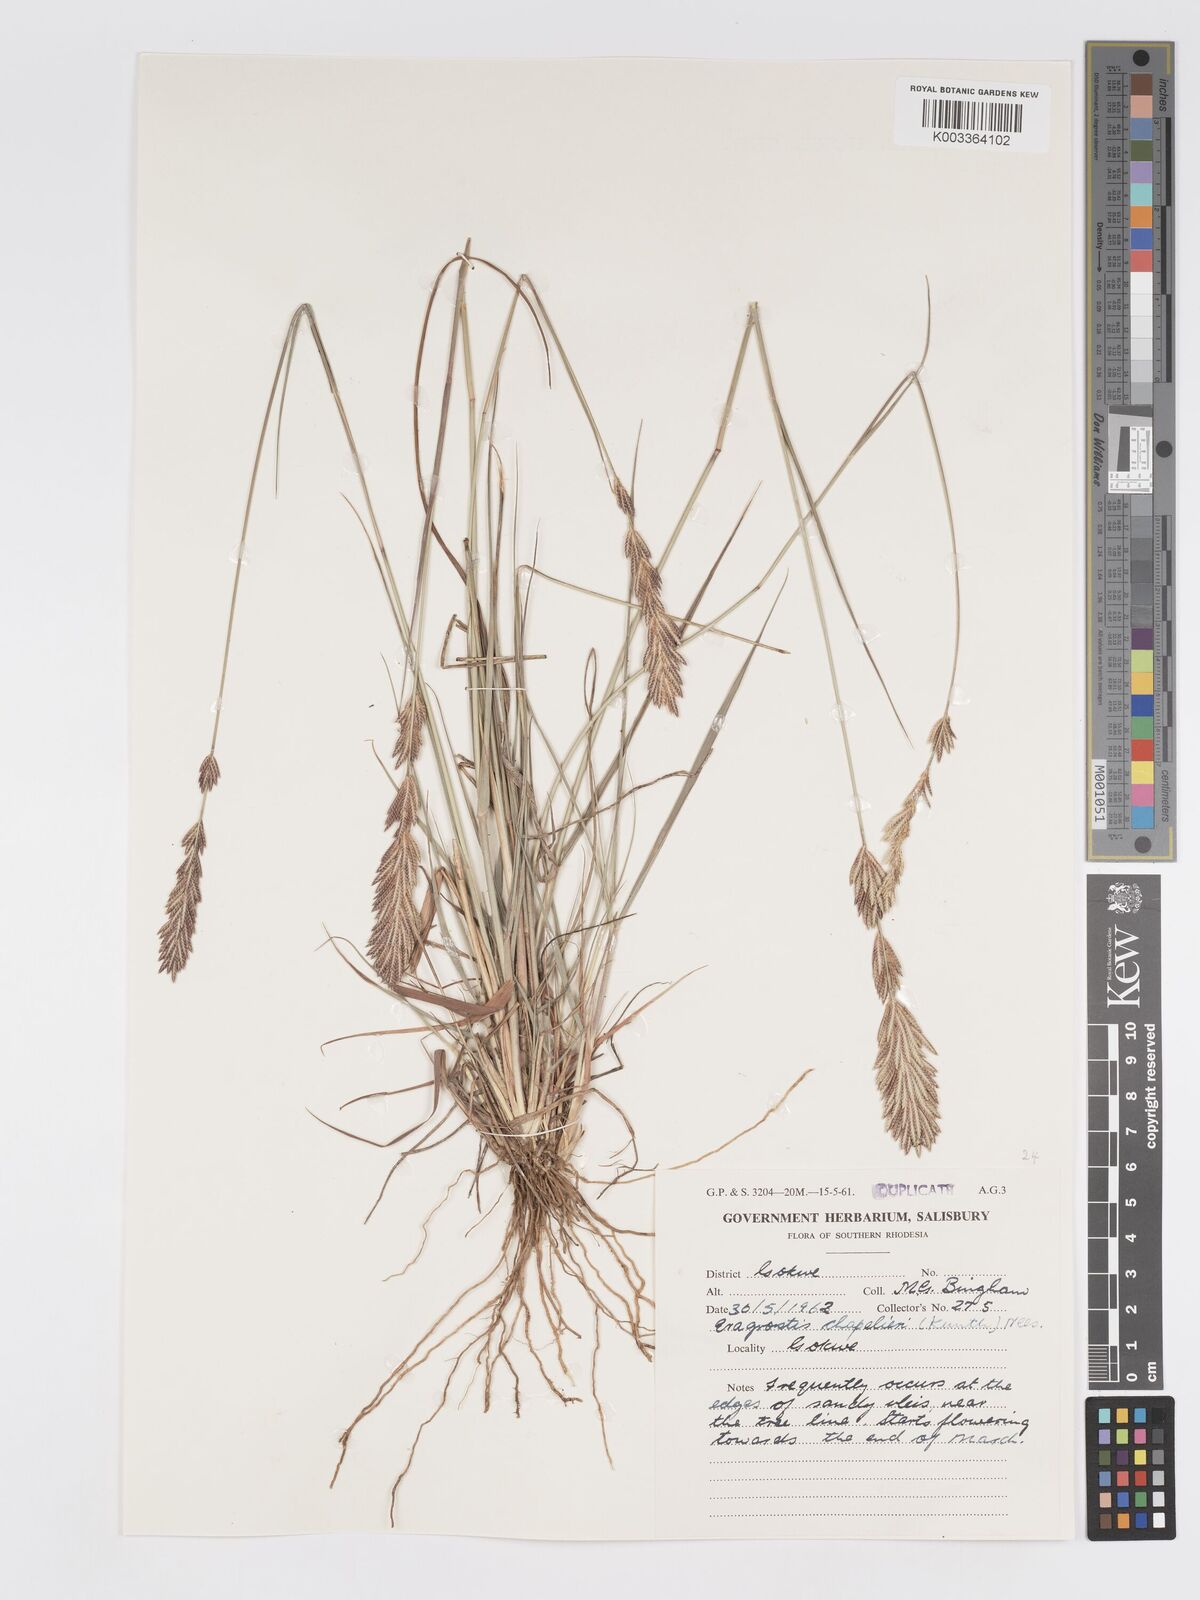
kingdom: Plantae
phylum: Tracheophyta
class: Liliopsida
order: Poales
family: Poaceae
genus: Eragrostis
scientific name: Eragrostis chapelieri
